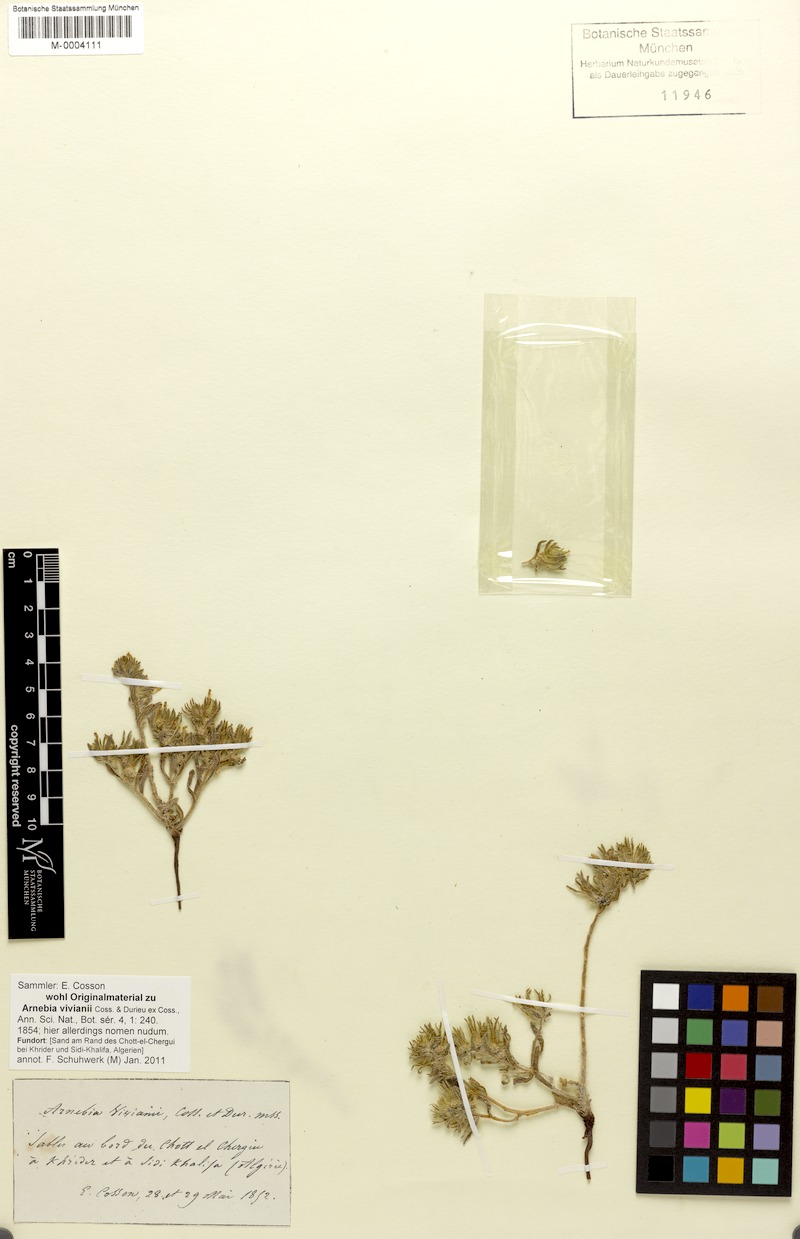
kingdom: Plantae
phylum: Tracheophyta
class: Magnoliopsida
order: Boraginales
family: Boraginaceae
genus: Arnebia
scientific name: Arnebia decumbens
